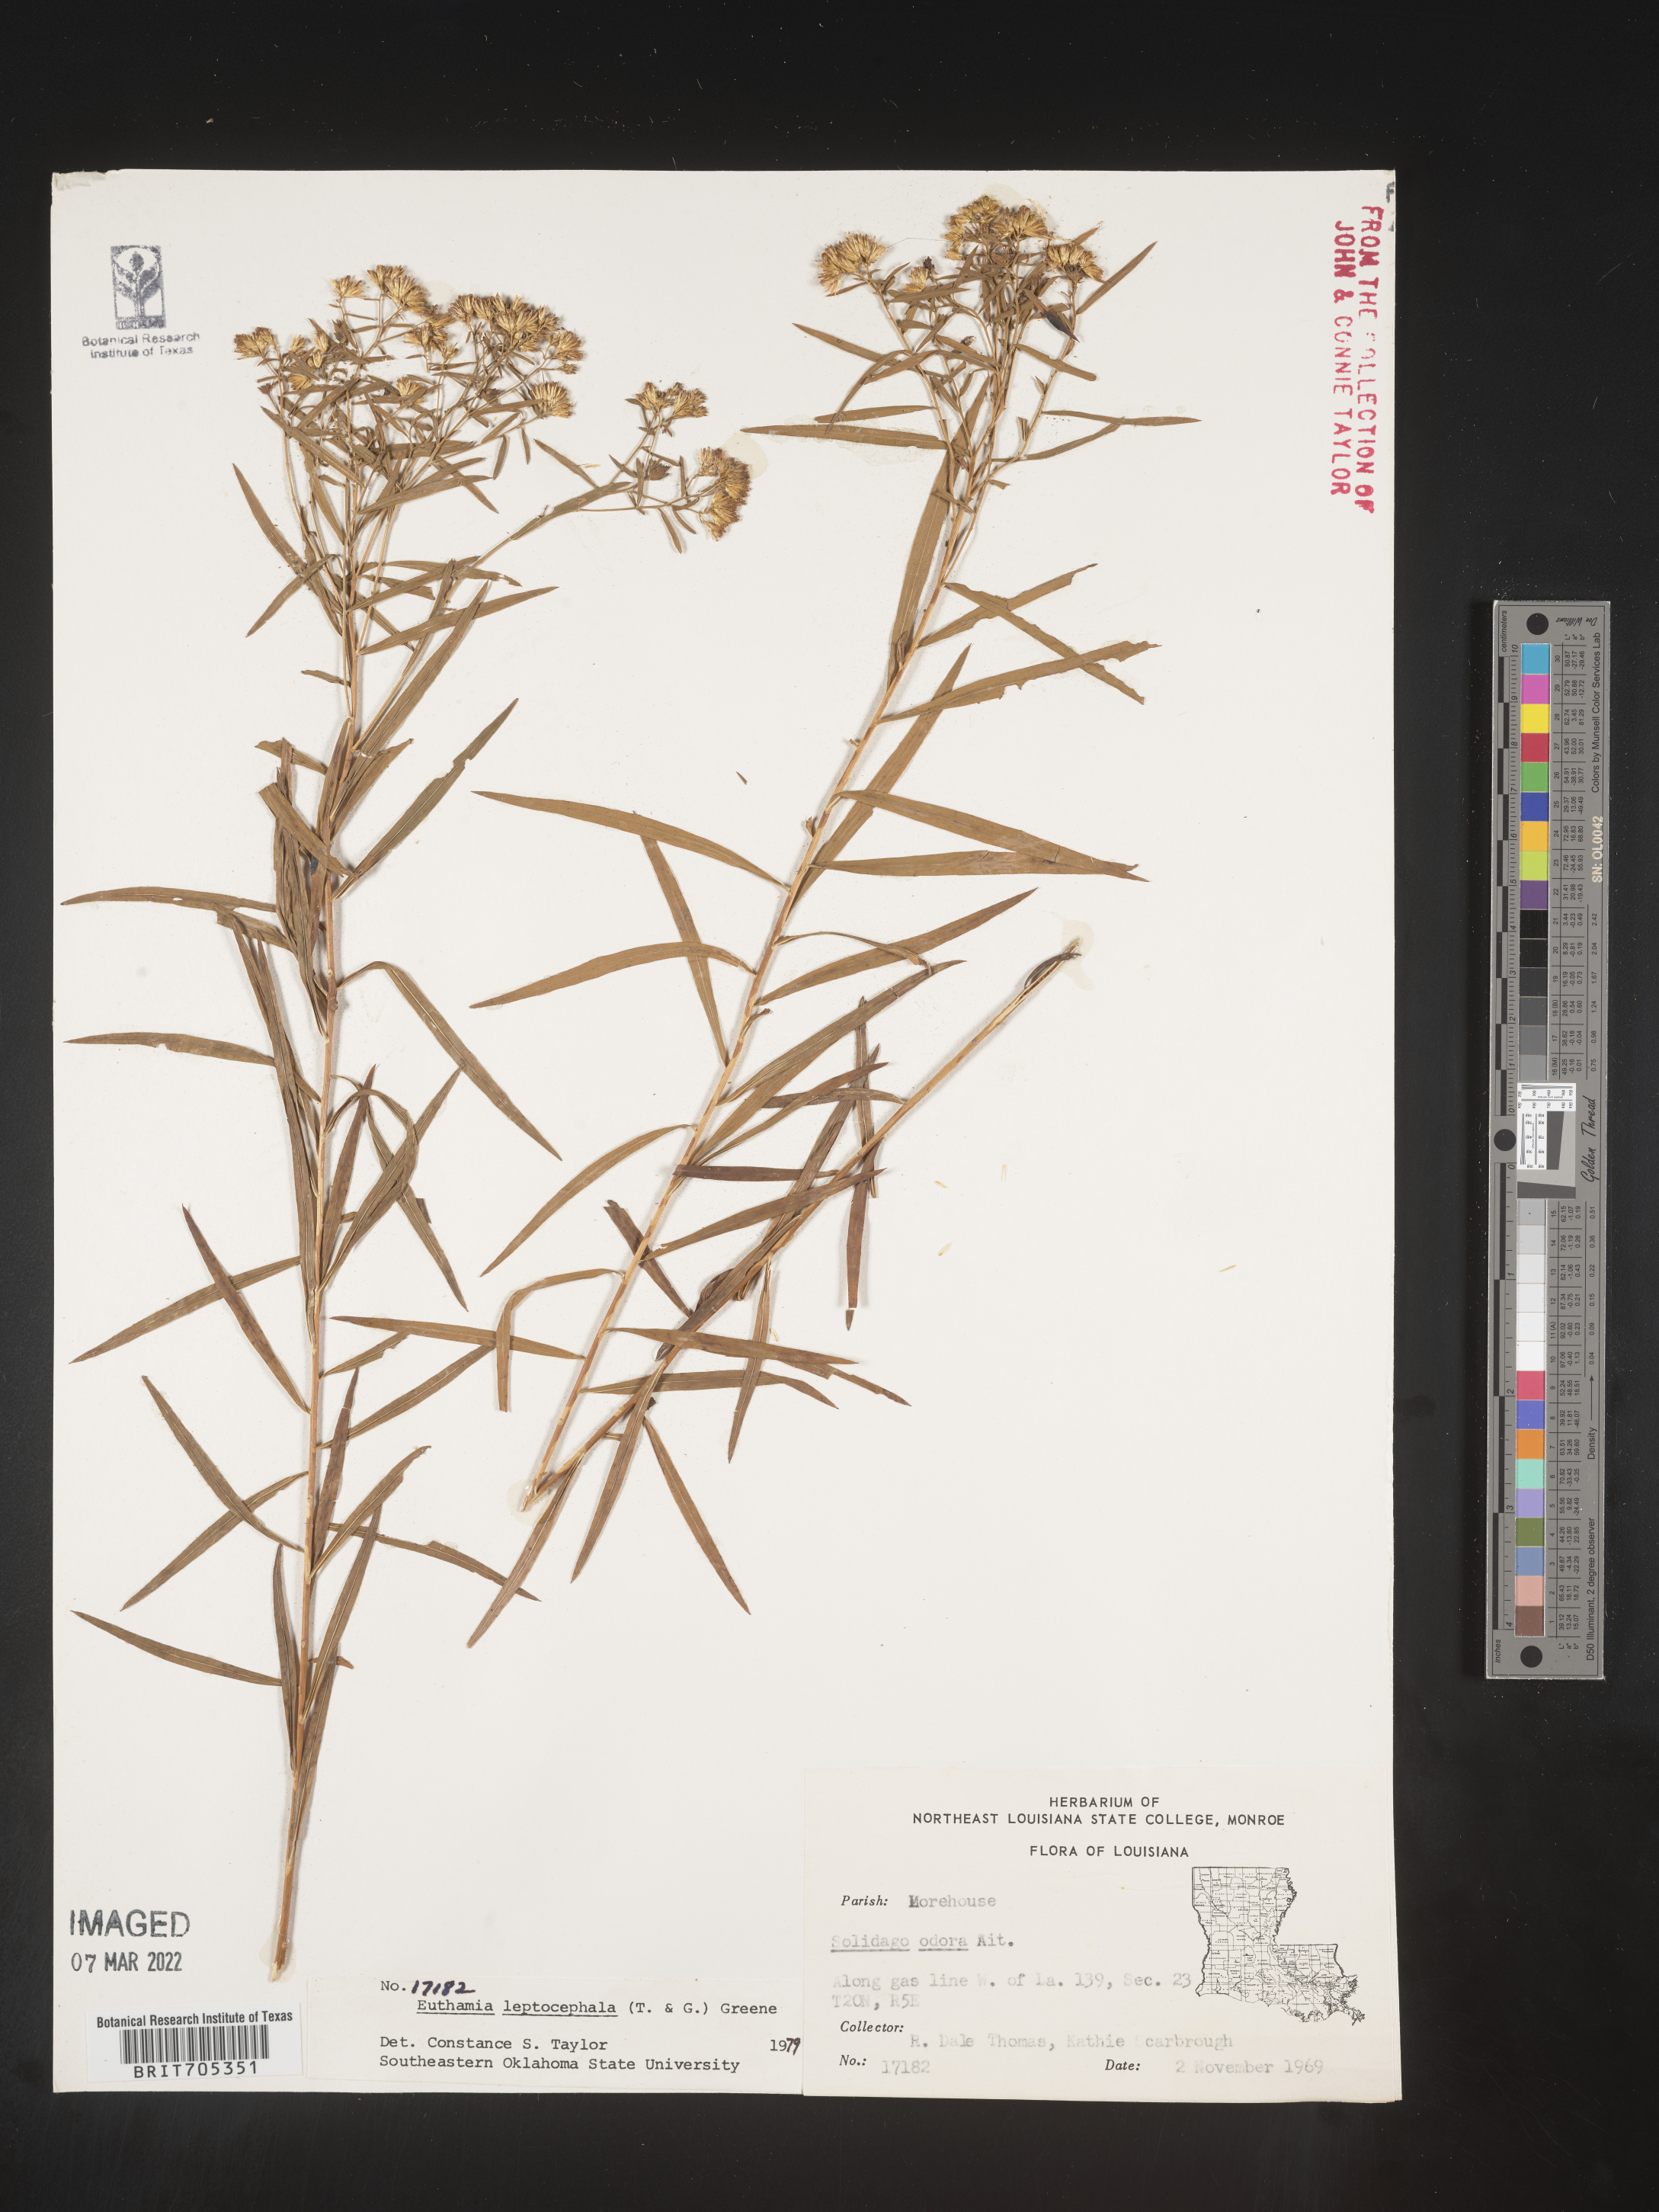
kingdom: Plantae
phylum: Tracheophyta
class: Magnoliopsida
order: Asterales
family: Asteraceae
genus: Euthamia
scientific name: Euthamia leptocephala
